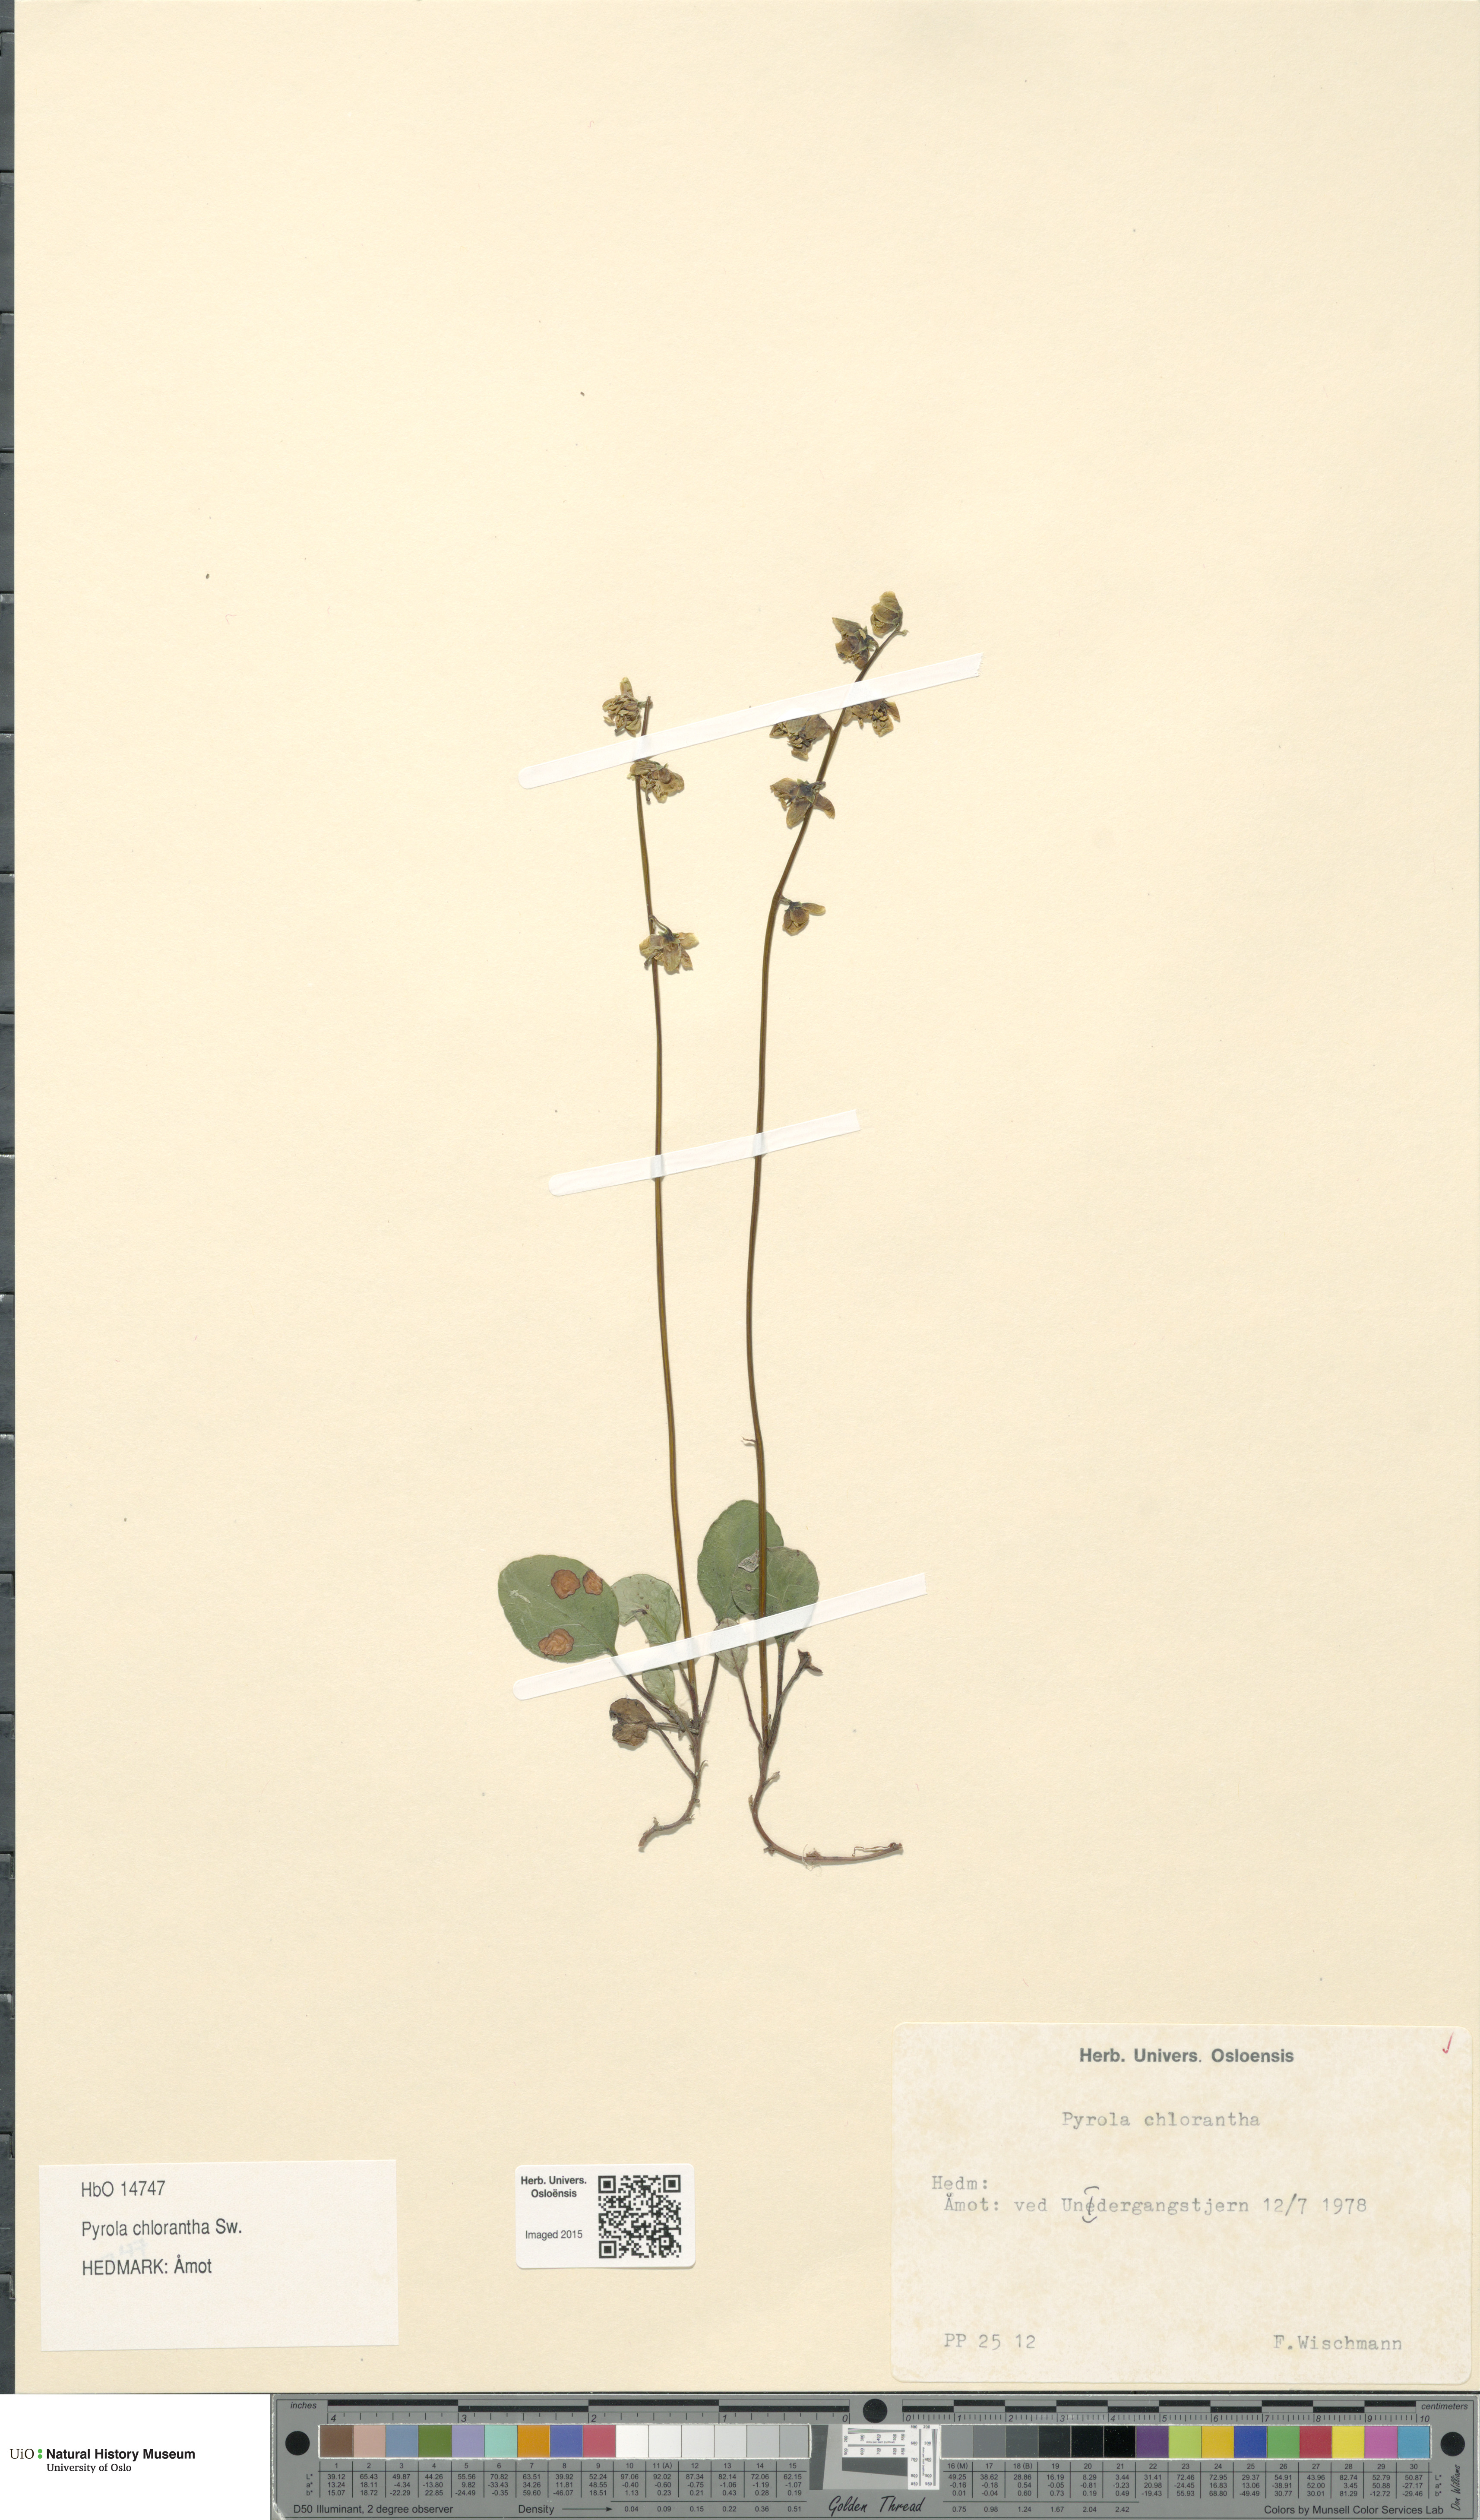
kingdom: Plantae
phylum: Tracheophyta
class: Magnoliopsida
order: Ericales
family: Ericaceae
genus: Pyrola
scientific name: Pyrola chlorantha
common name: Green wintergreen
